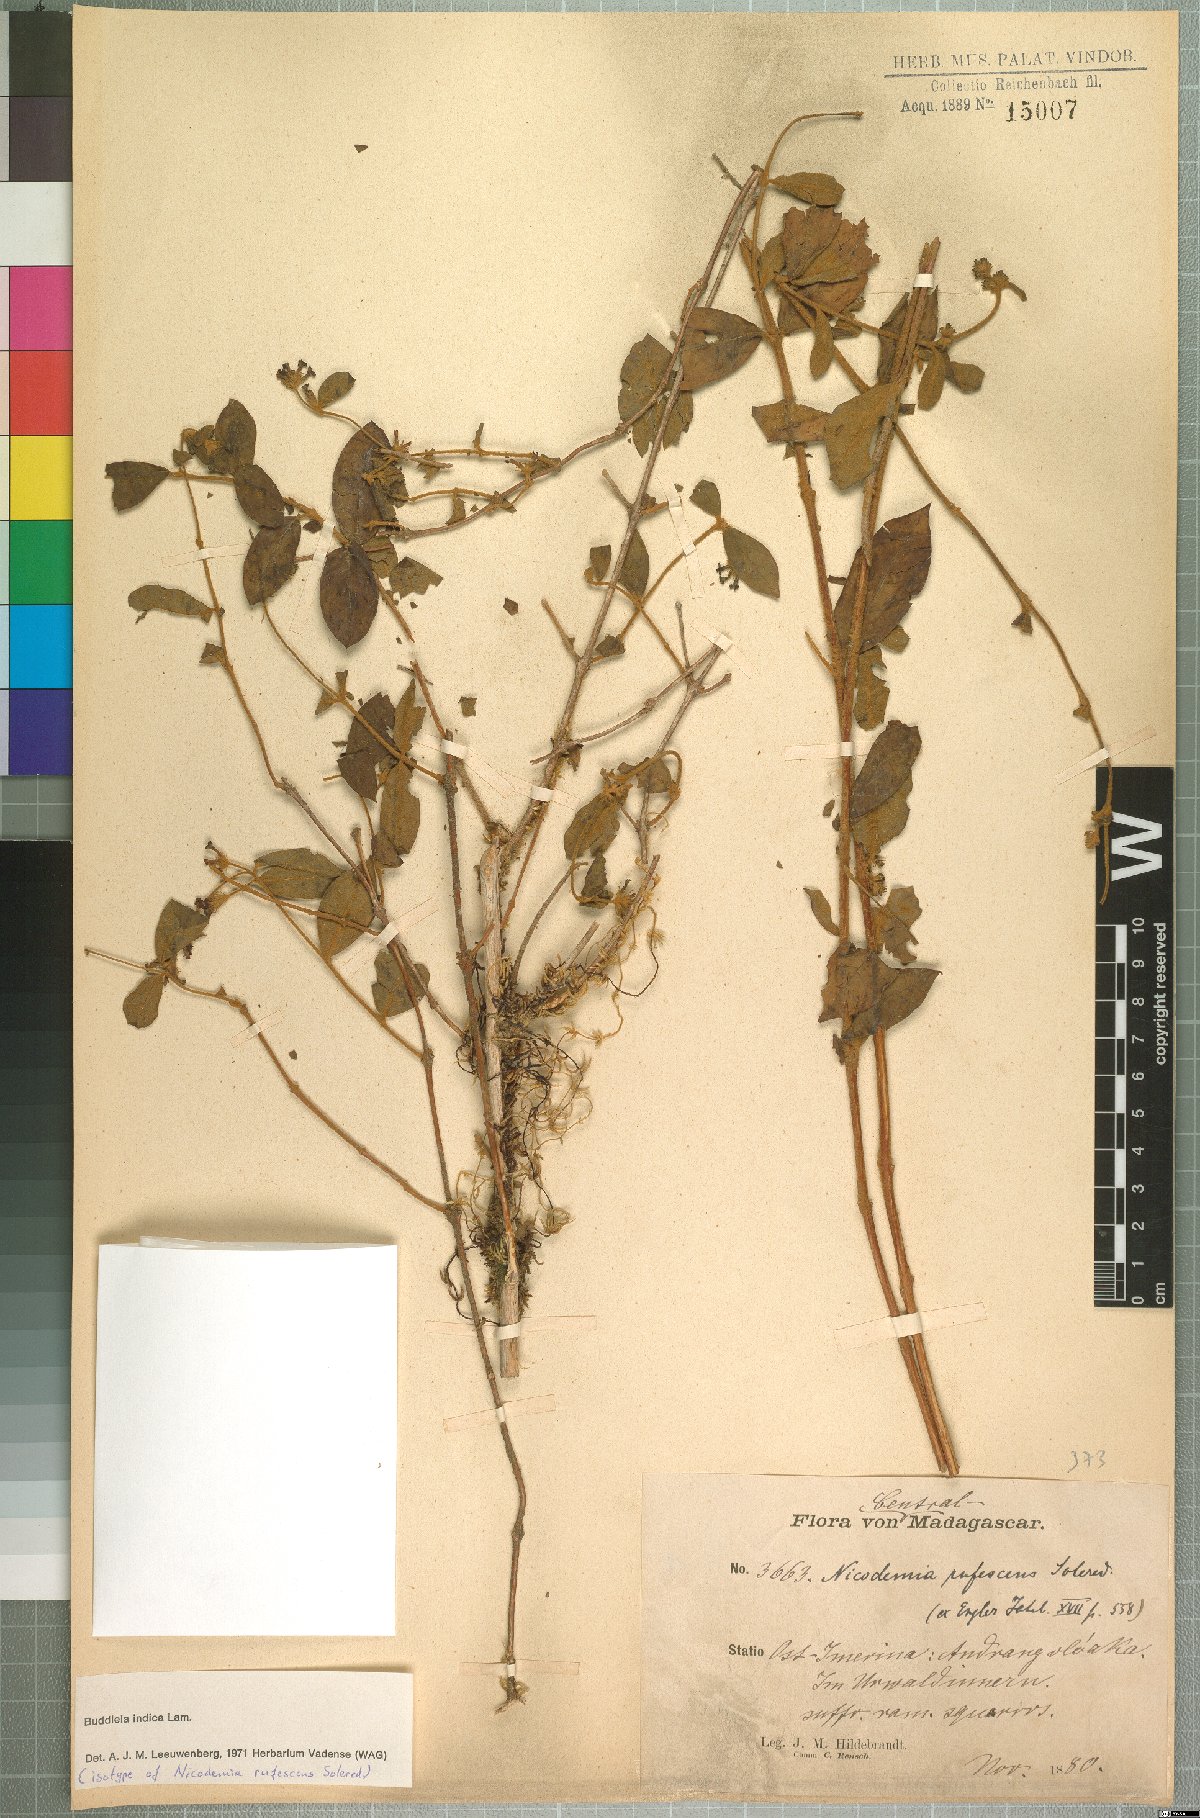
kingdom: Plantae
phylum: Tracheophyta
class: Magnoliopsida
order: Lamiales
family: Scrophulariaceae
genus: Buddleja
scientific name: Buddleja indica
